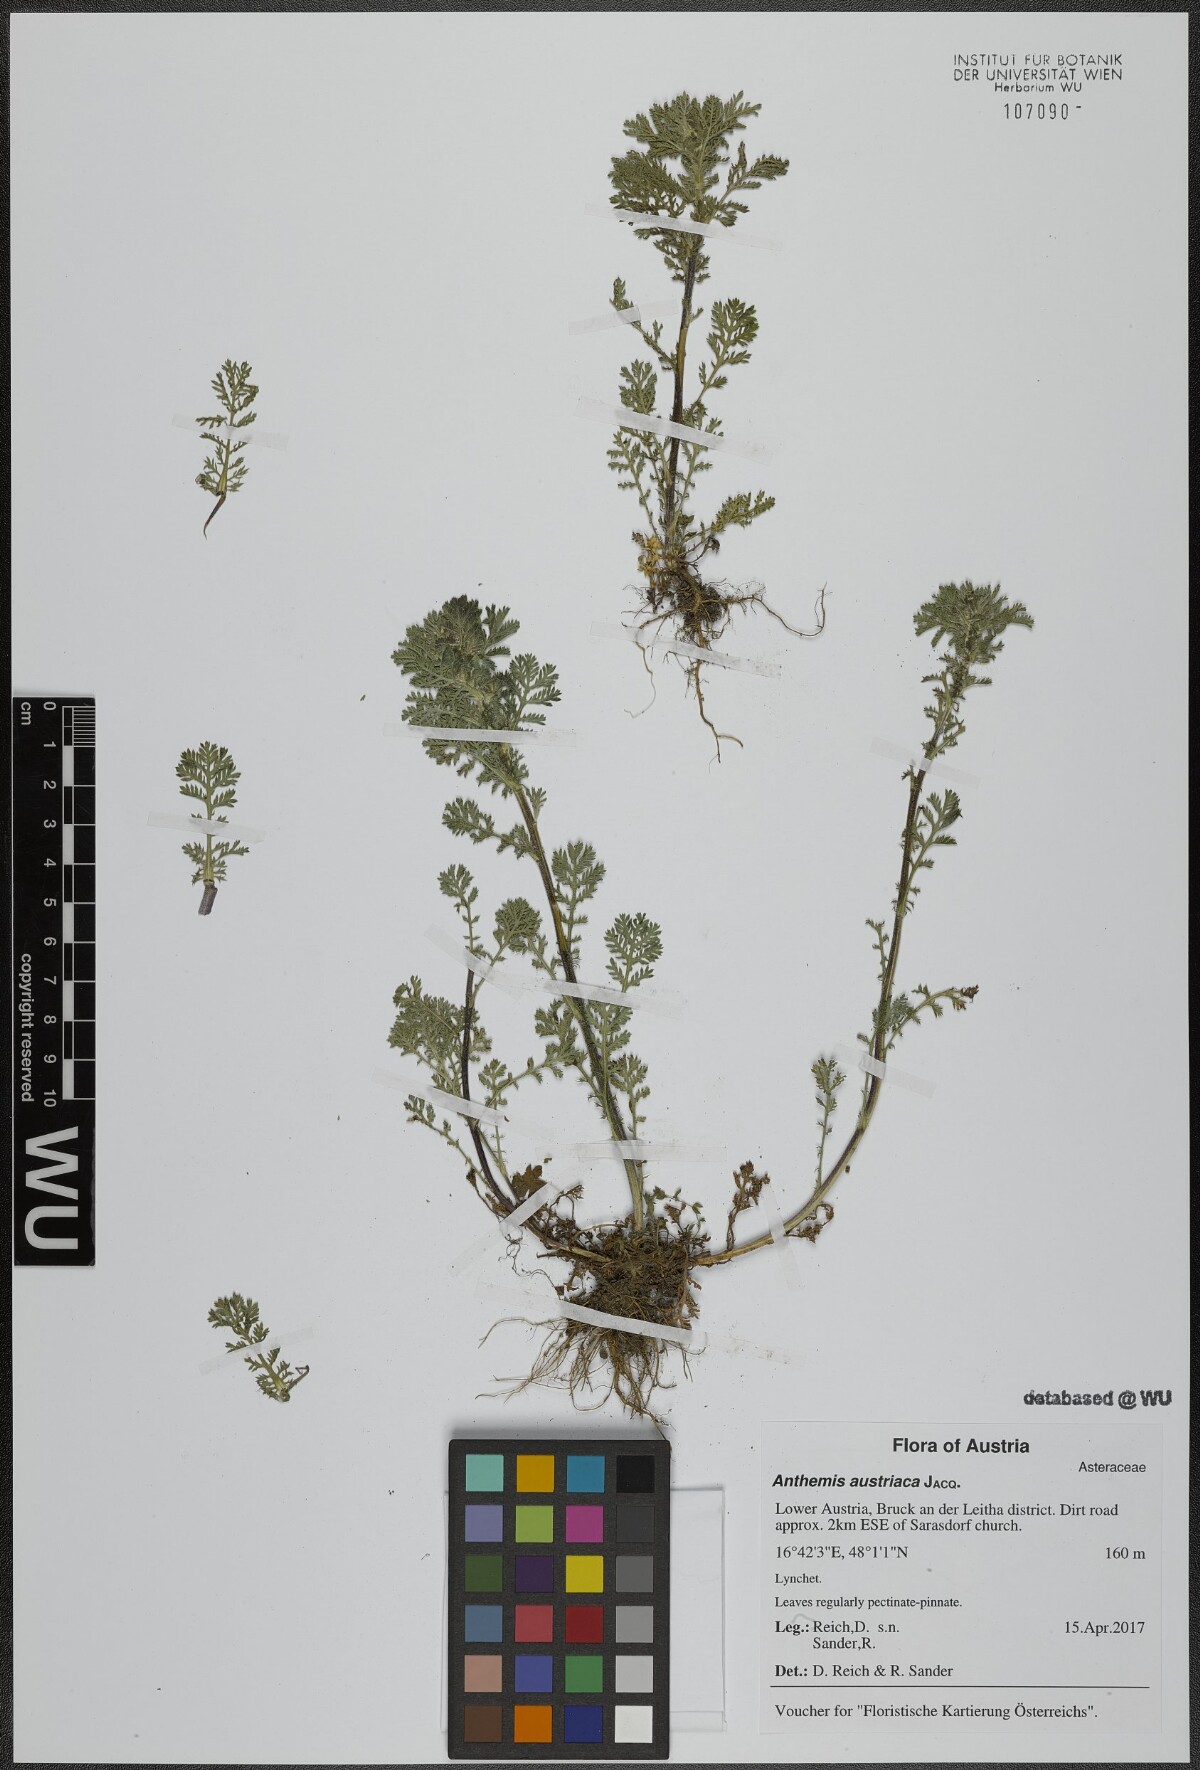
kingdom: Plantae
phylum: Tracheophyta
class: Magnoliopsida
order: Asterales
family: Asteraceae
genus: Cota
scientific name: Cota austriaca
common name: Austrian chamomile
